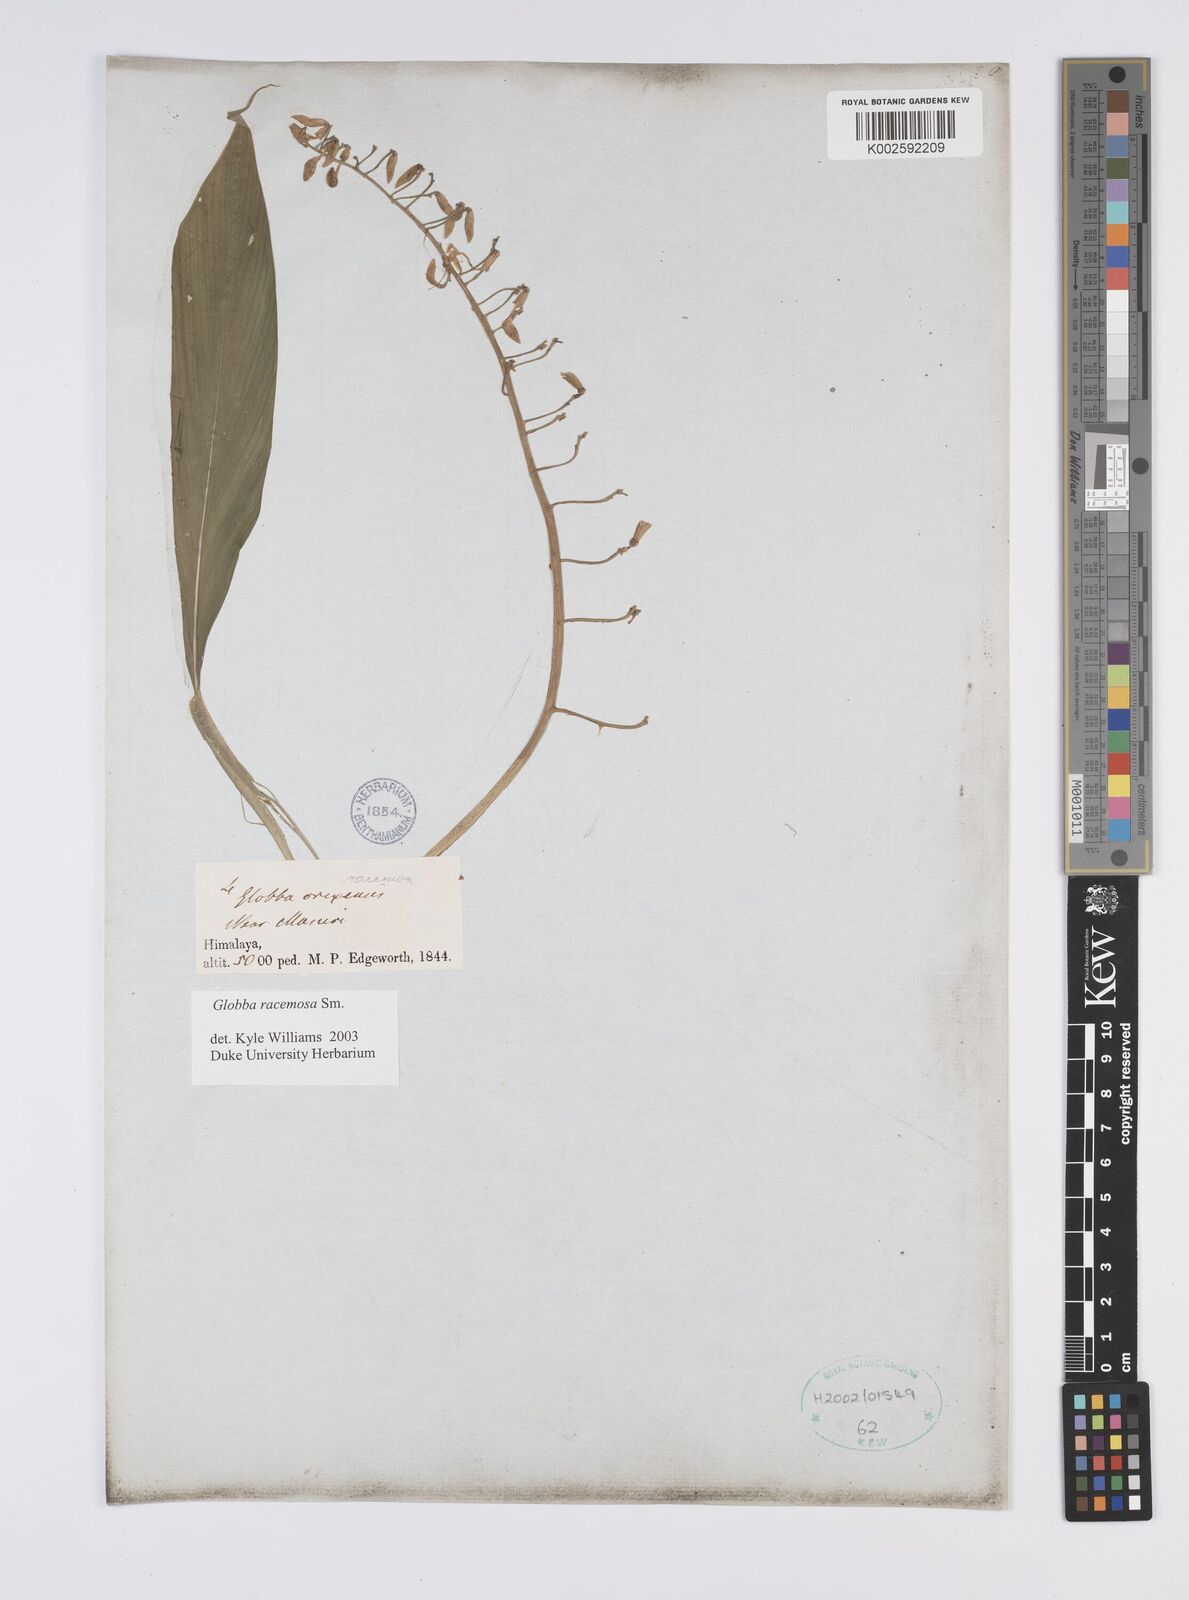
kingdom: Plantae
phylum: Tracheophyta
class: Liliopsida
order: Zingiberales
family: Zingiberaceae
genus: Globba
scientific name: Globba racemosa
